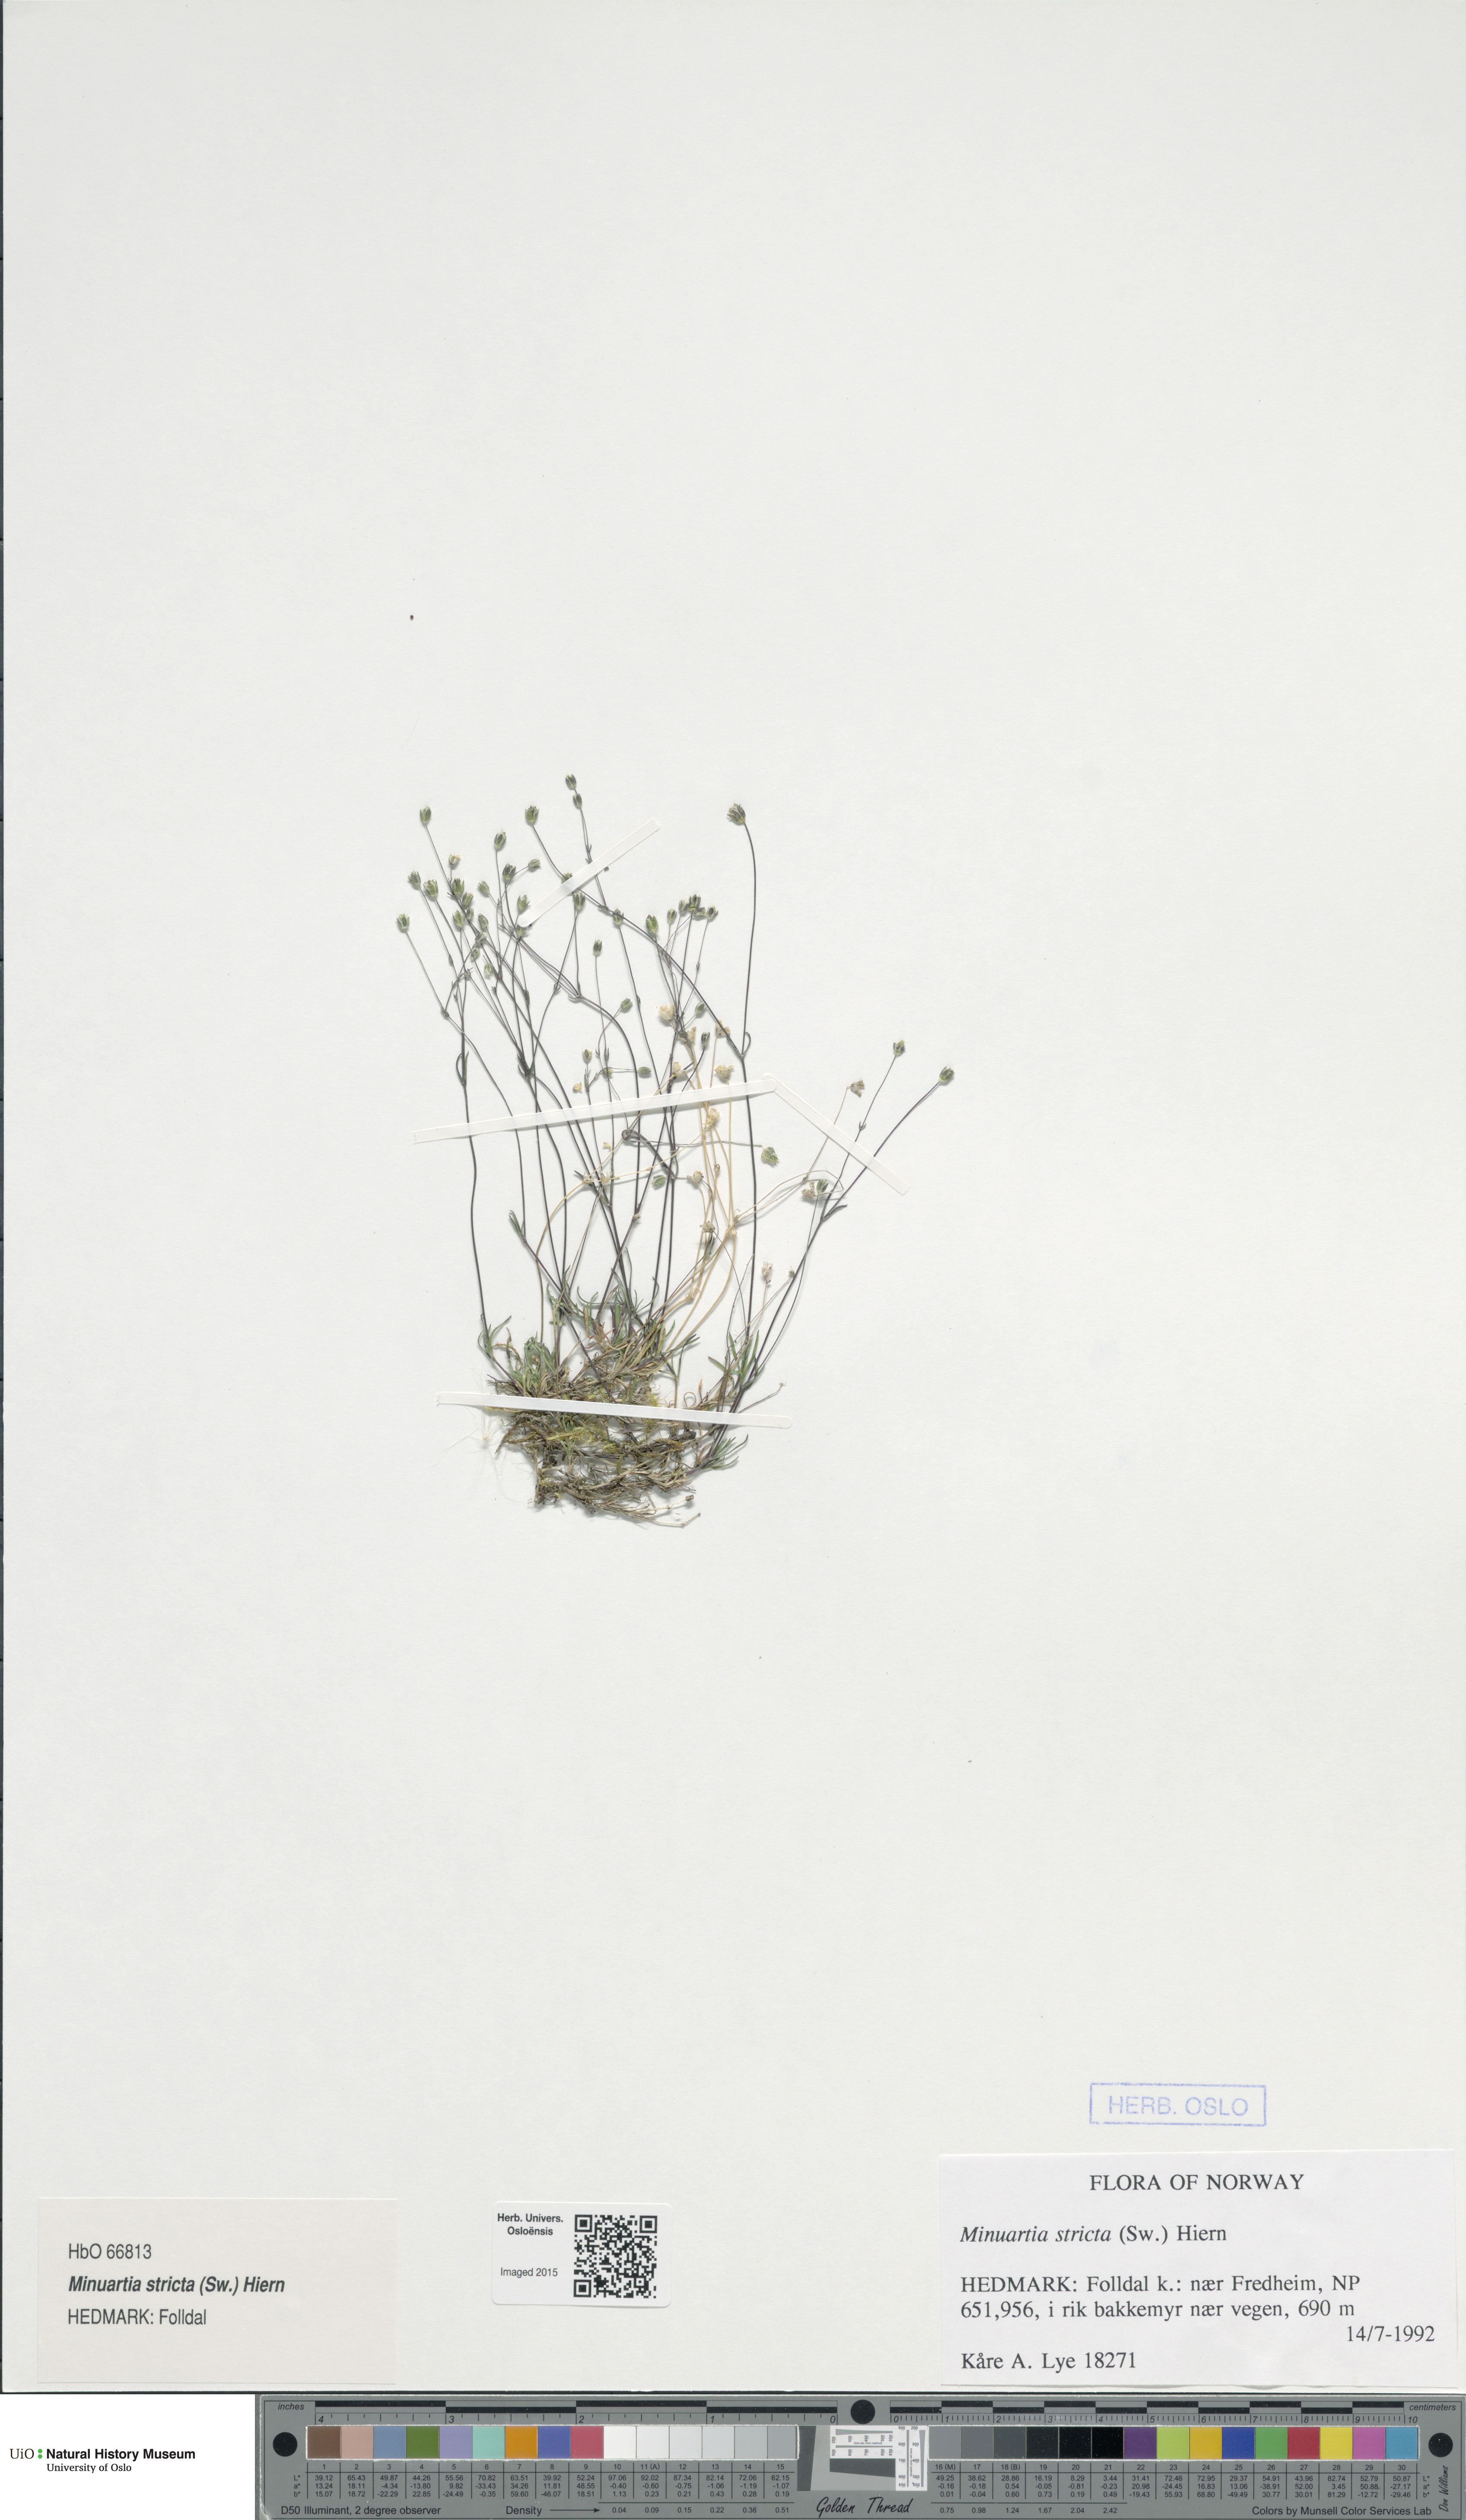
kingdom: Plantae
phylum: Tracheophyta
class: Magnoliopsida
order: Caryophyllales
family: Caryophyllaceae
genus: Sabulina
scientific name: Sabulina stricta
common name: Bog sandwort
